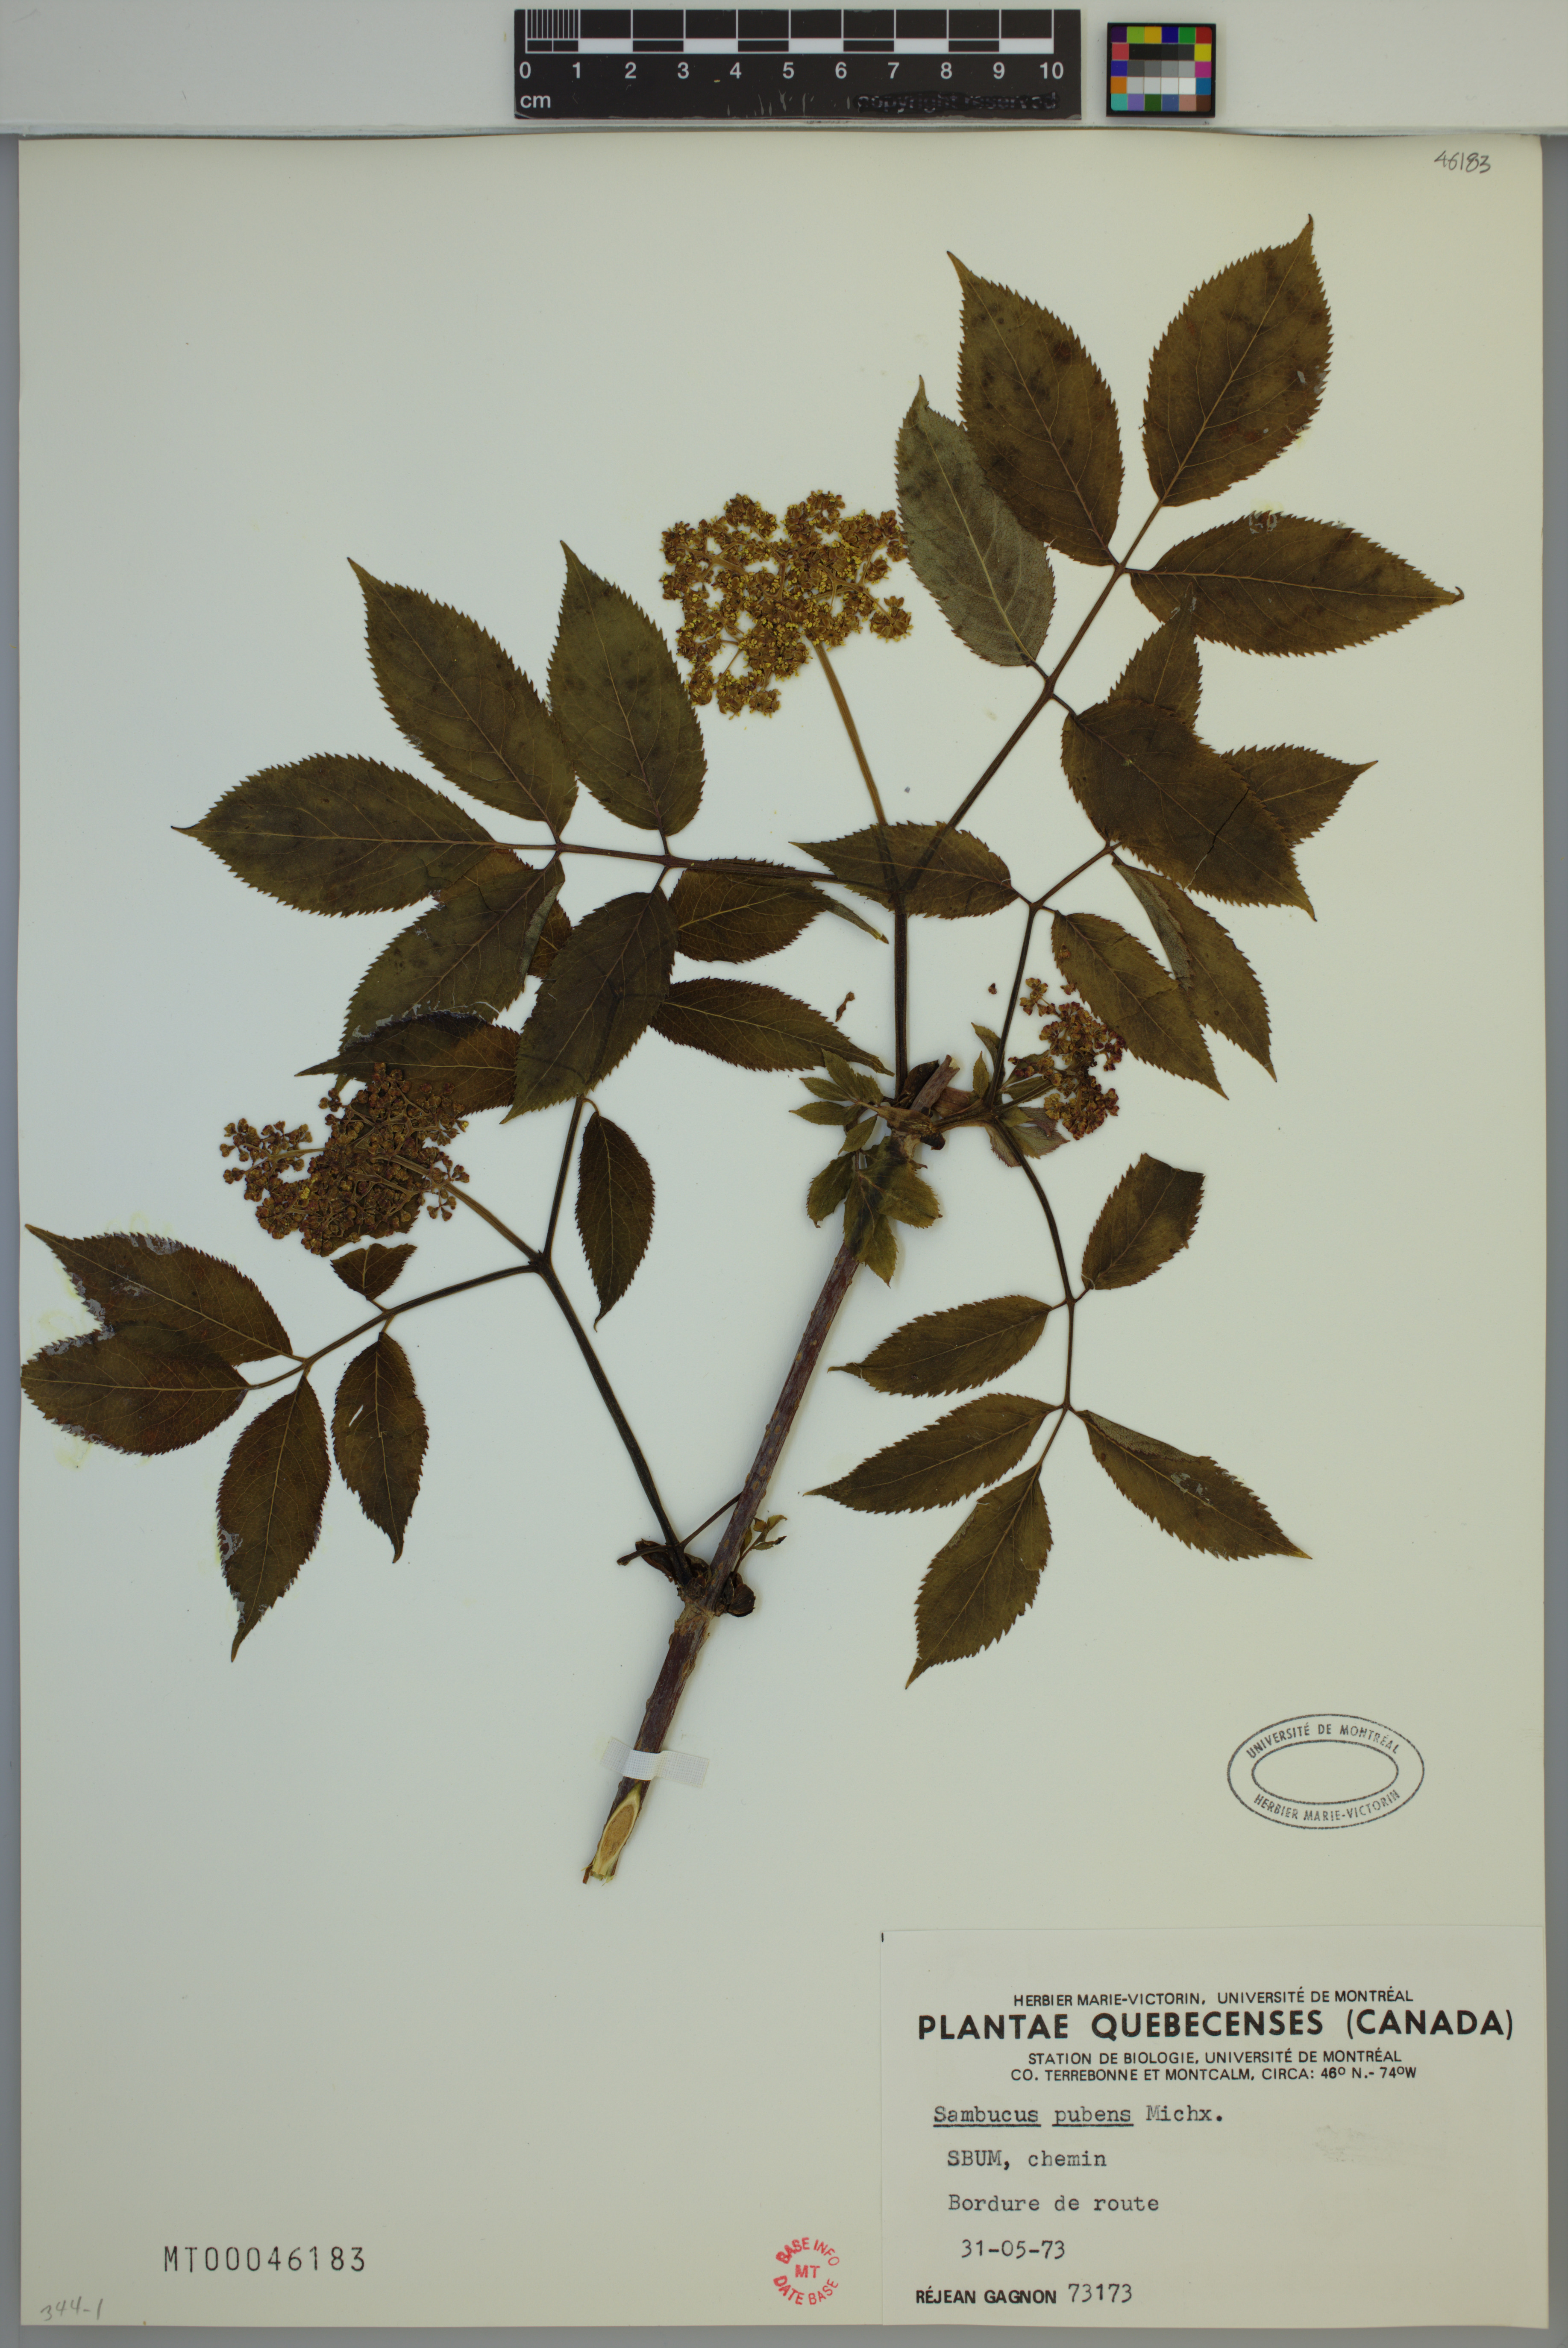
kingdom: Plantae
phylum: Tracheophyta
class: Magnoliopsida
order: Dipsacales
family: Viburnaceae
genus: Sambucus
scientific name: Sambucus racemosa
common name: Red-berried elder
